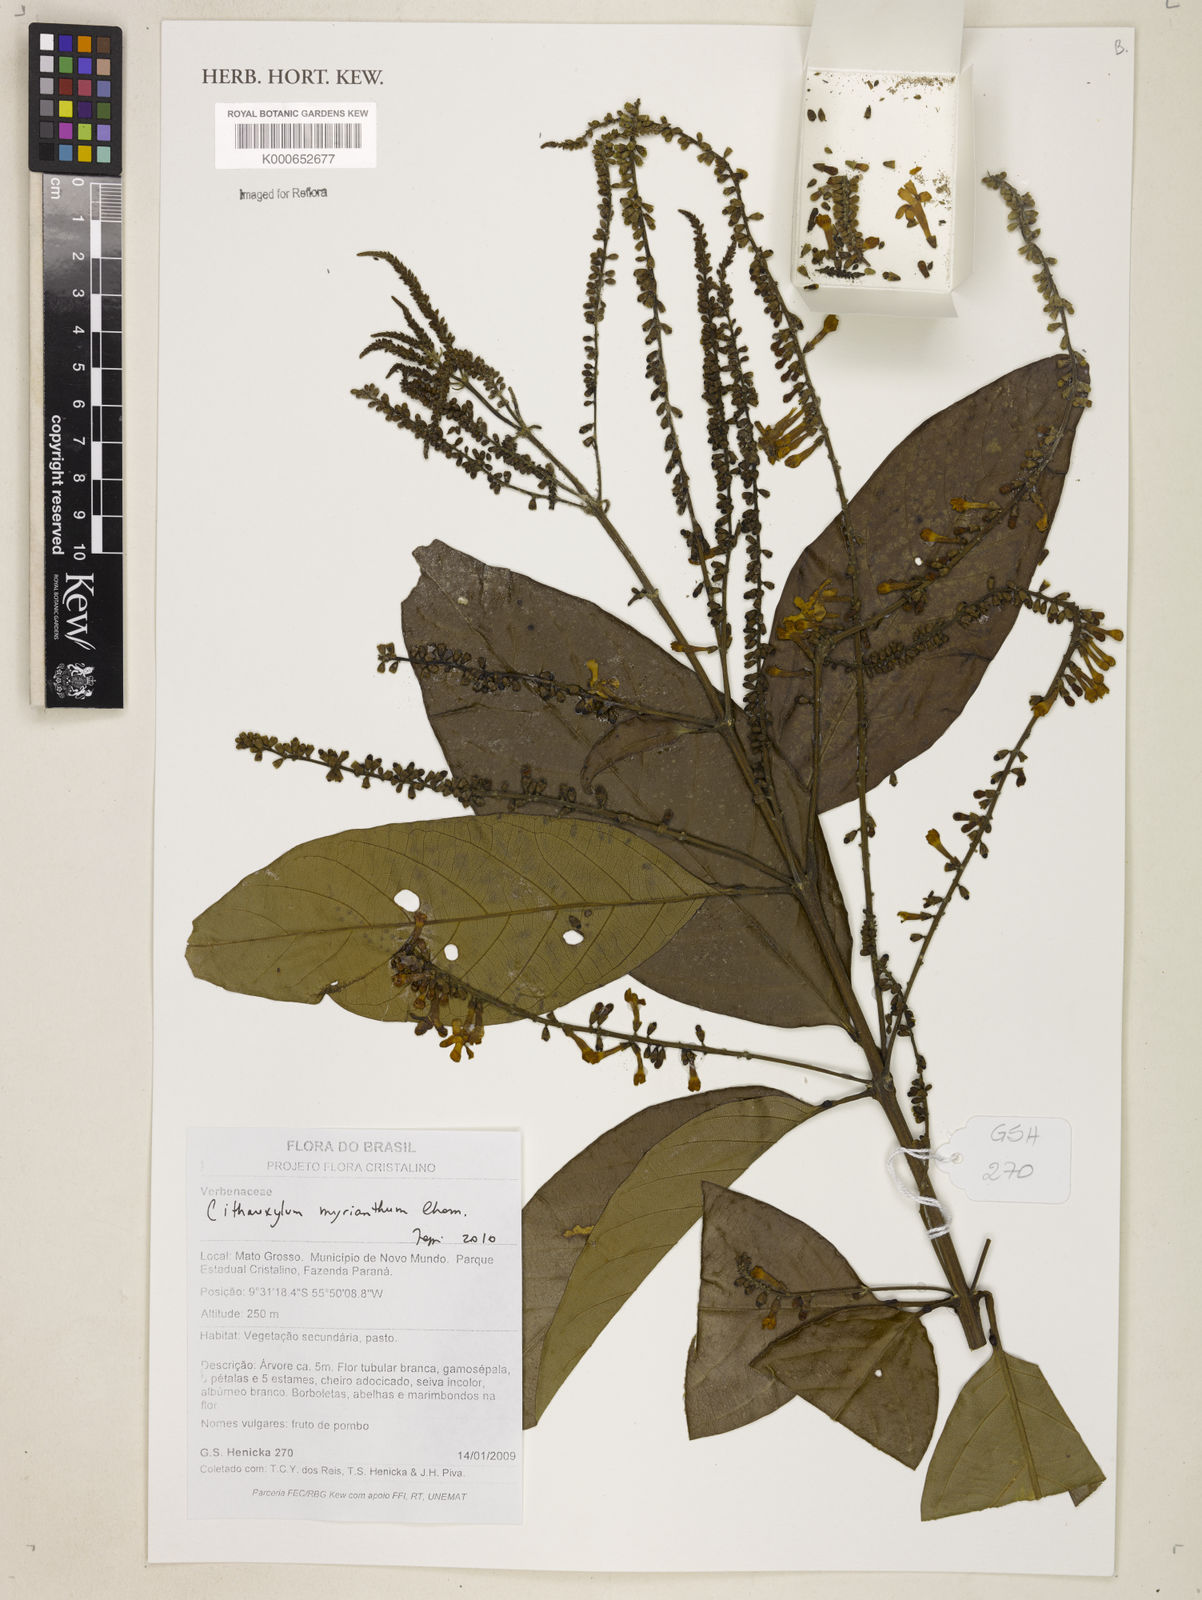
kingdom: Plantae
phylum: Tracheophyta
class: Magnoliopsida
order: Lamiales
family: Verbenaceae
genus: Citharexylum
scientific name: Citharexylum myrianthum
